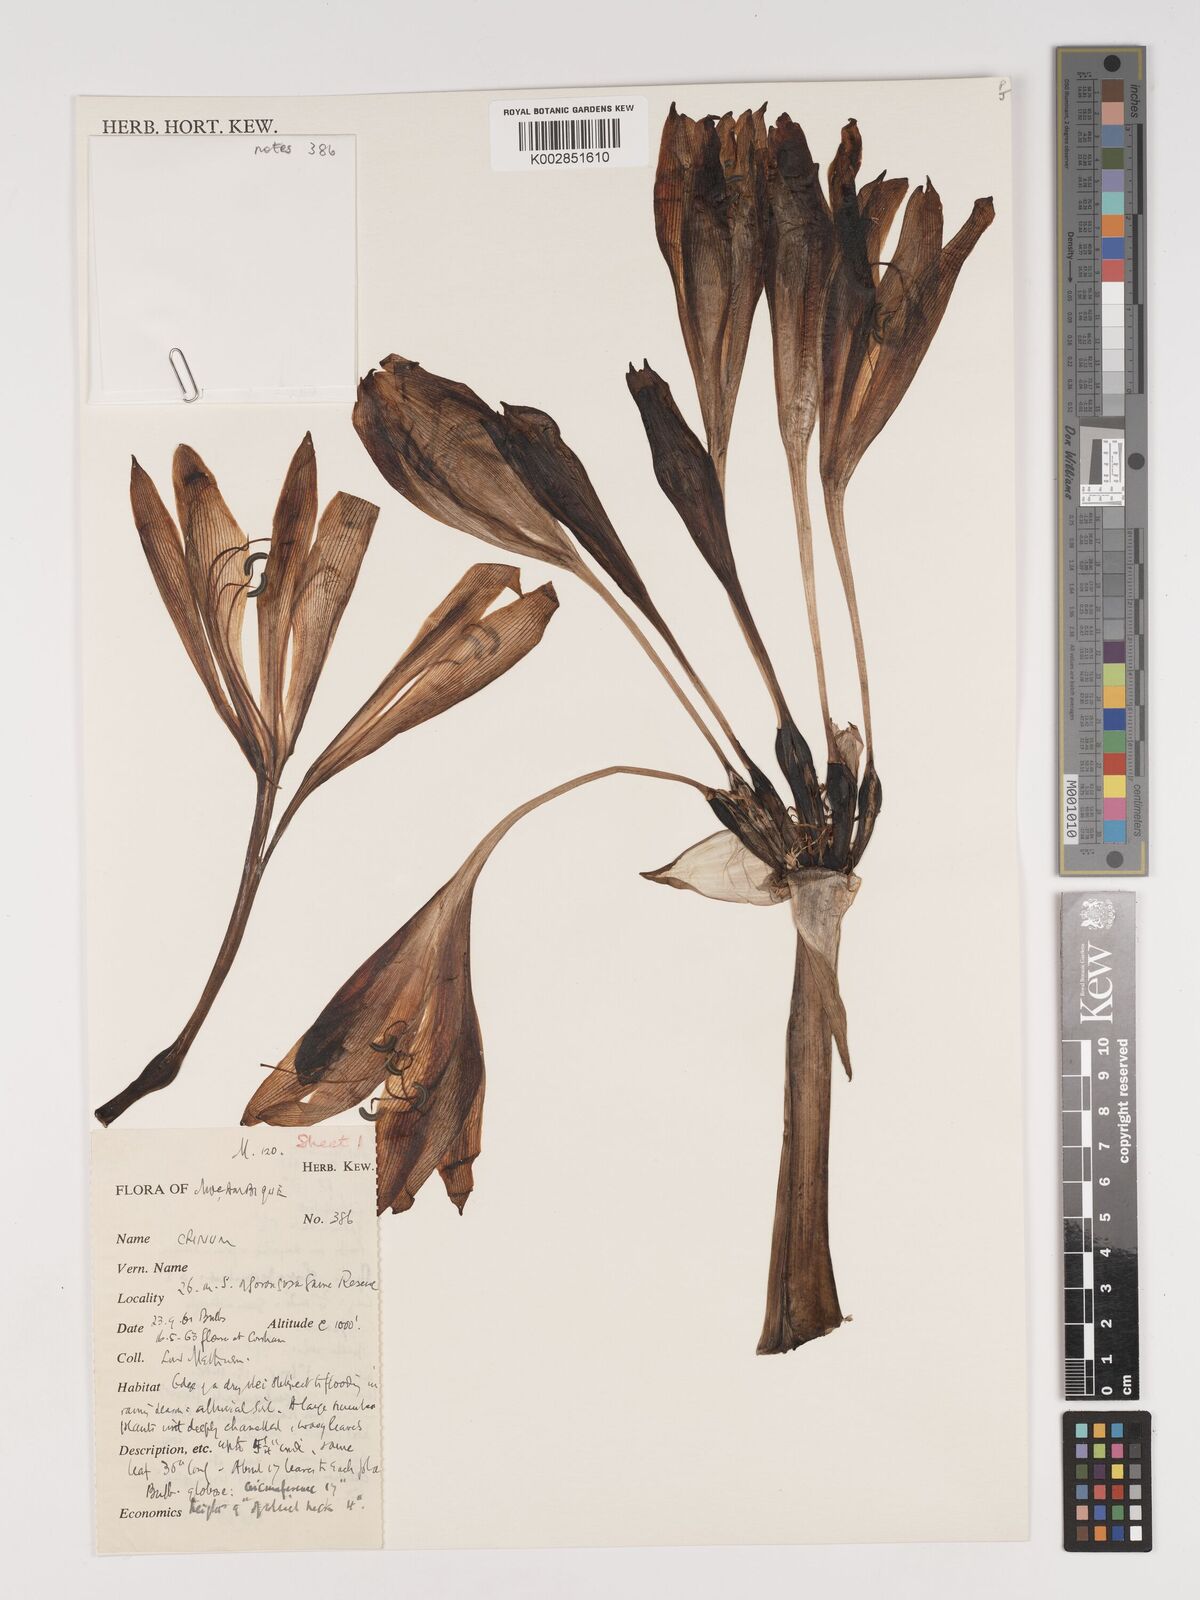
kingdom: Plantae
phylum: Tracheophyta
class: Liliopsida
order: Asparagales
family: Amaryllidaceae
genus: Crinum
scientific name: Crinum macowanii
